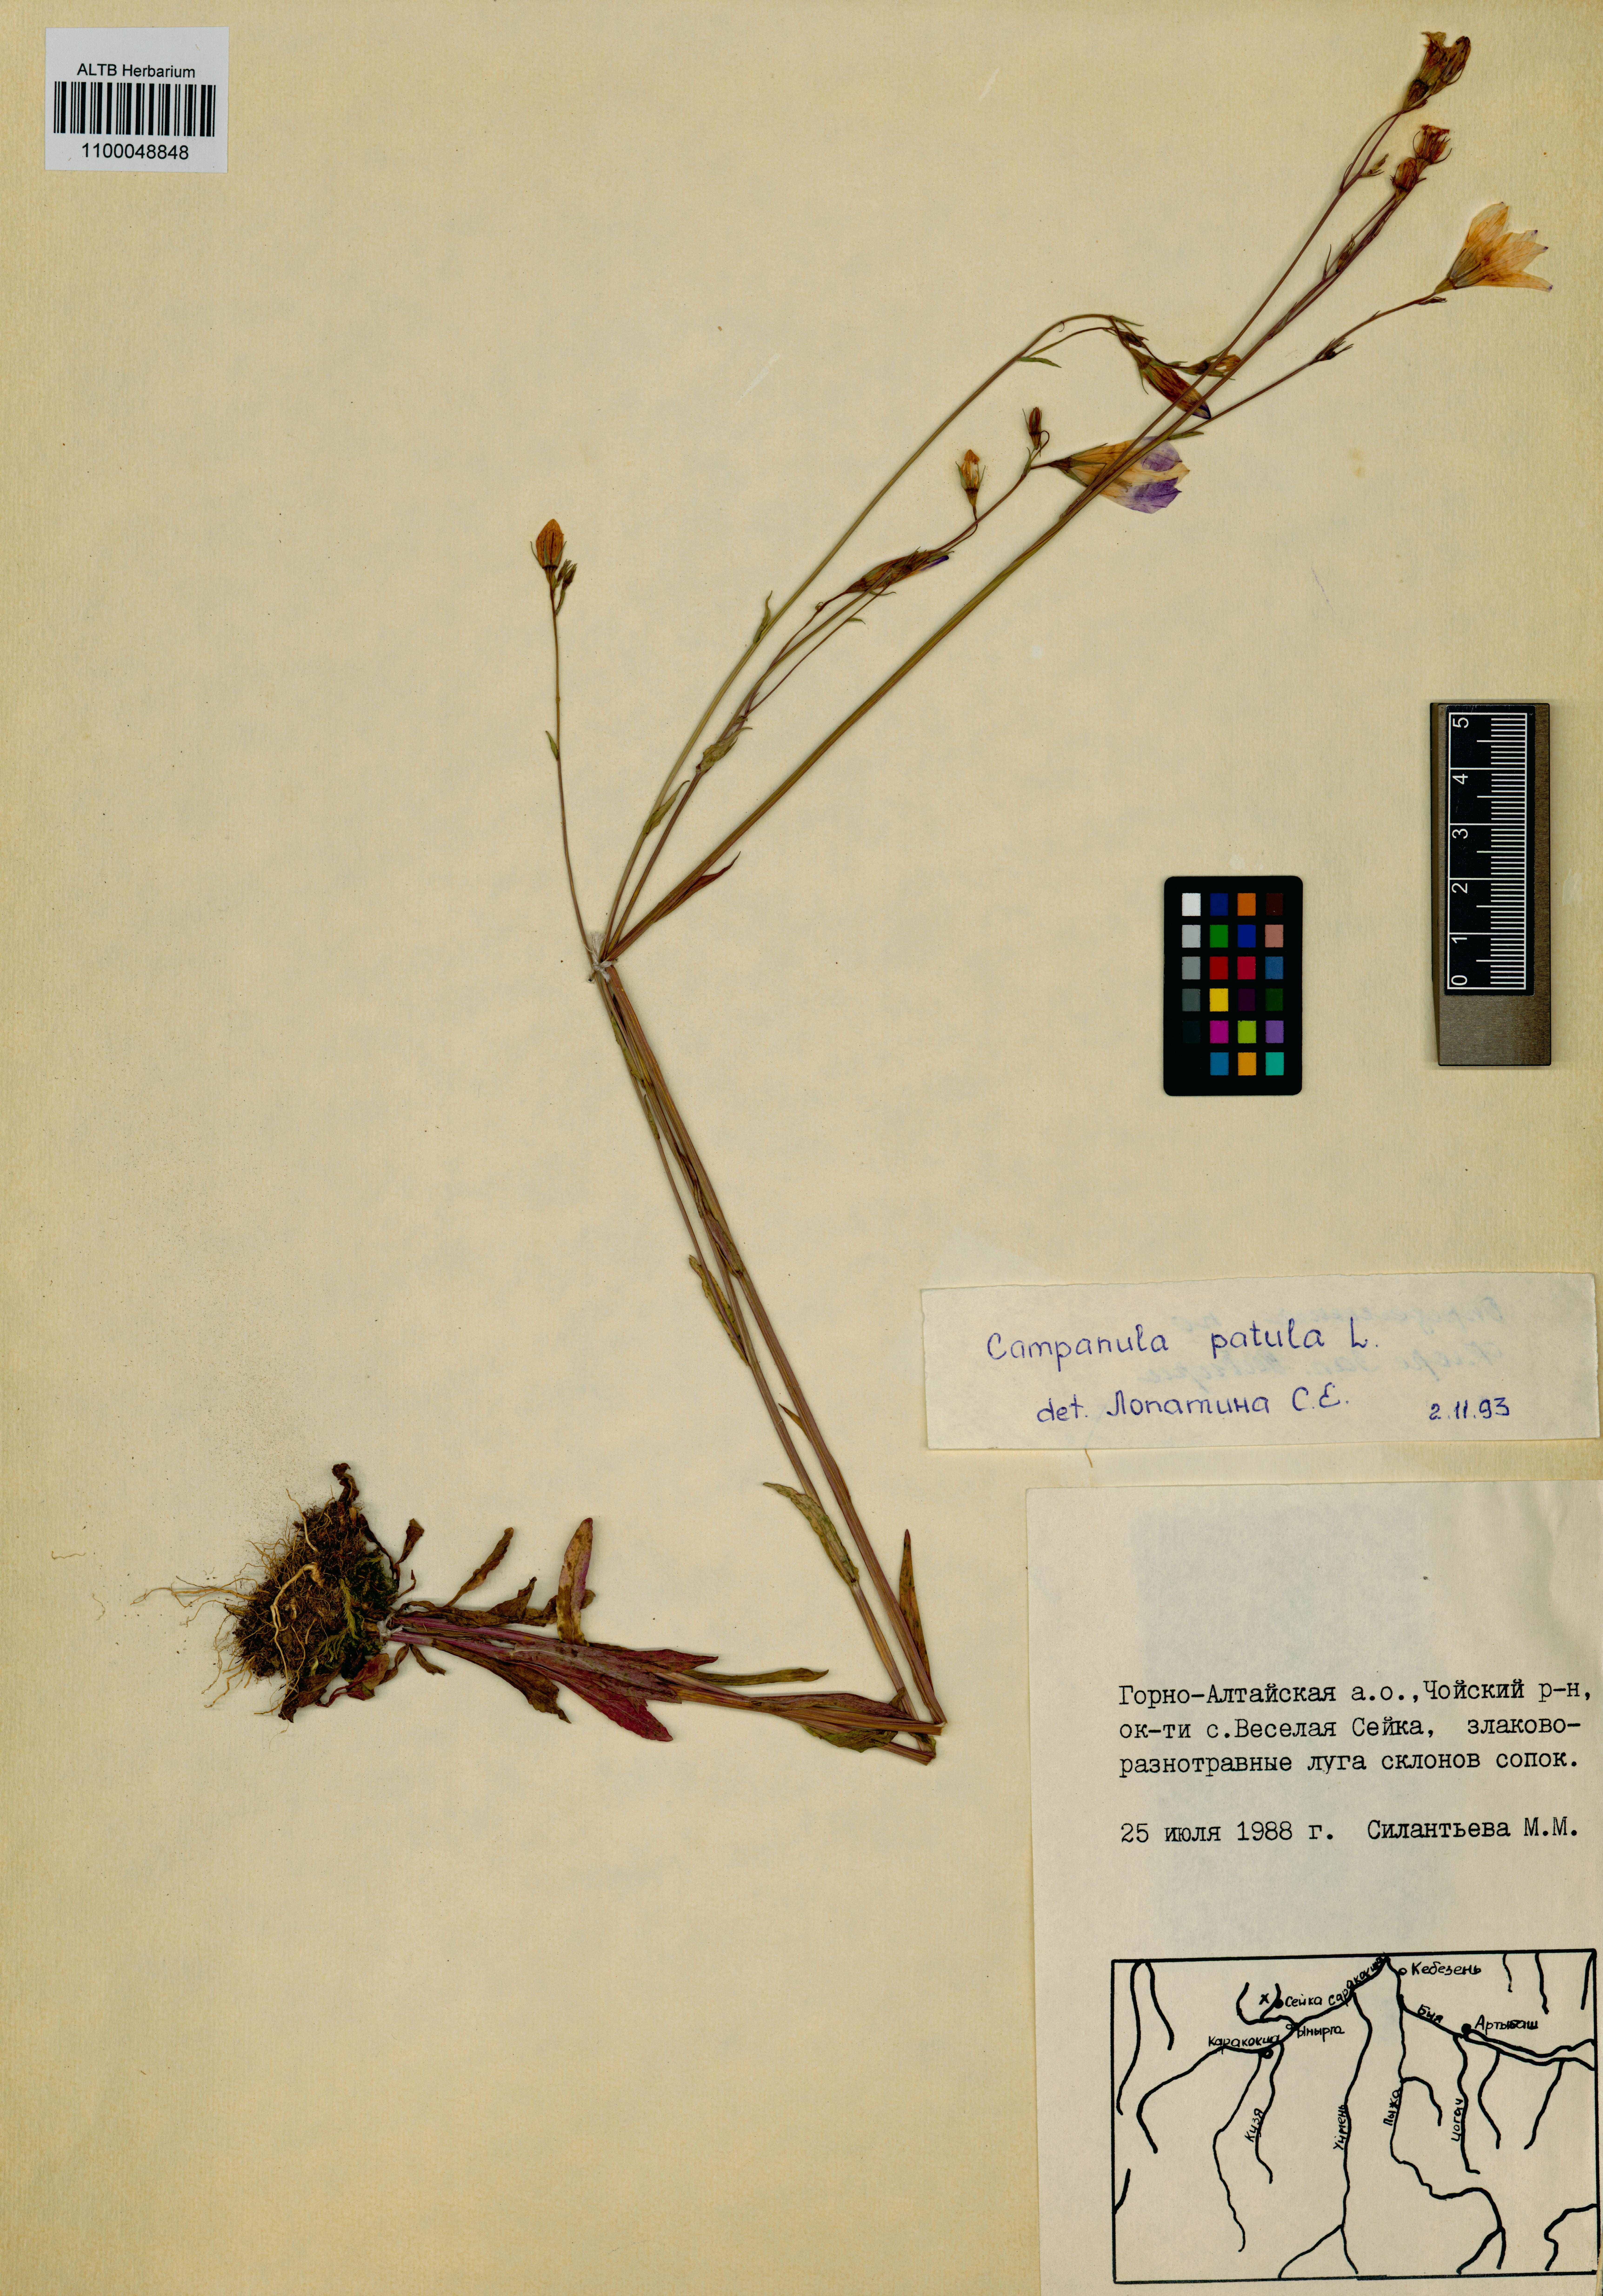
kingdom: Plantae
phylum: Tracheophyta
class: Magnoliopsida
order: Asterales
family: Campanulaceae
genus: Campanula
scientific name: Campanula patula
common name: Spreading bellflower
